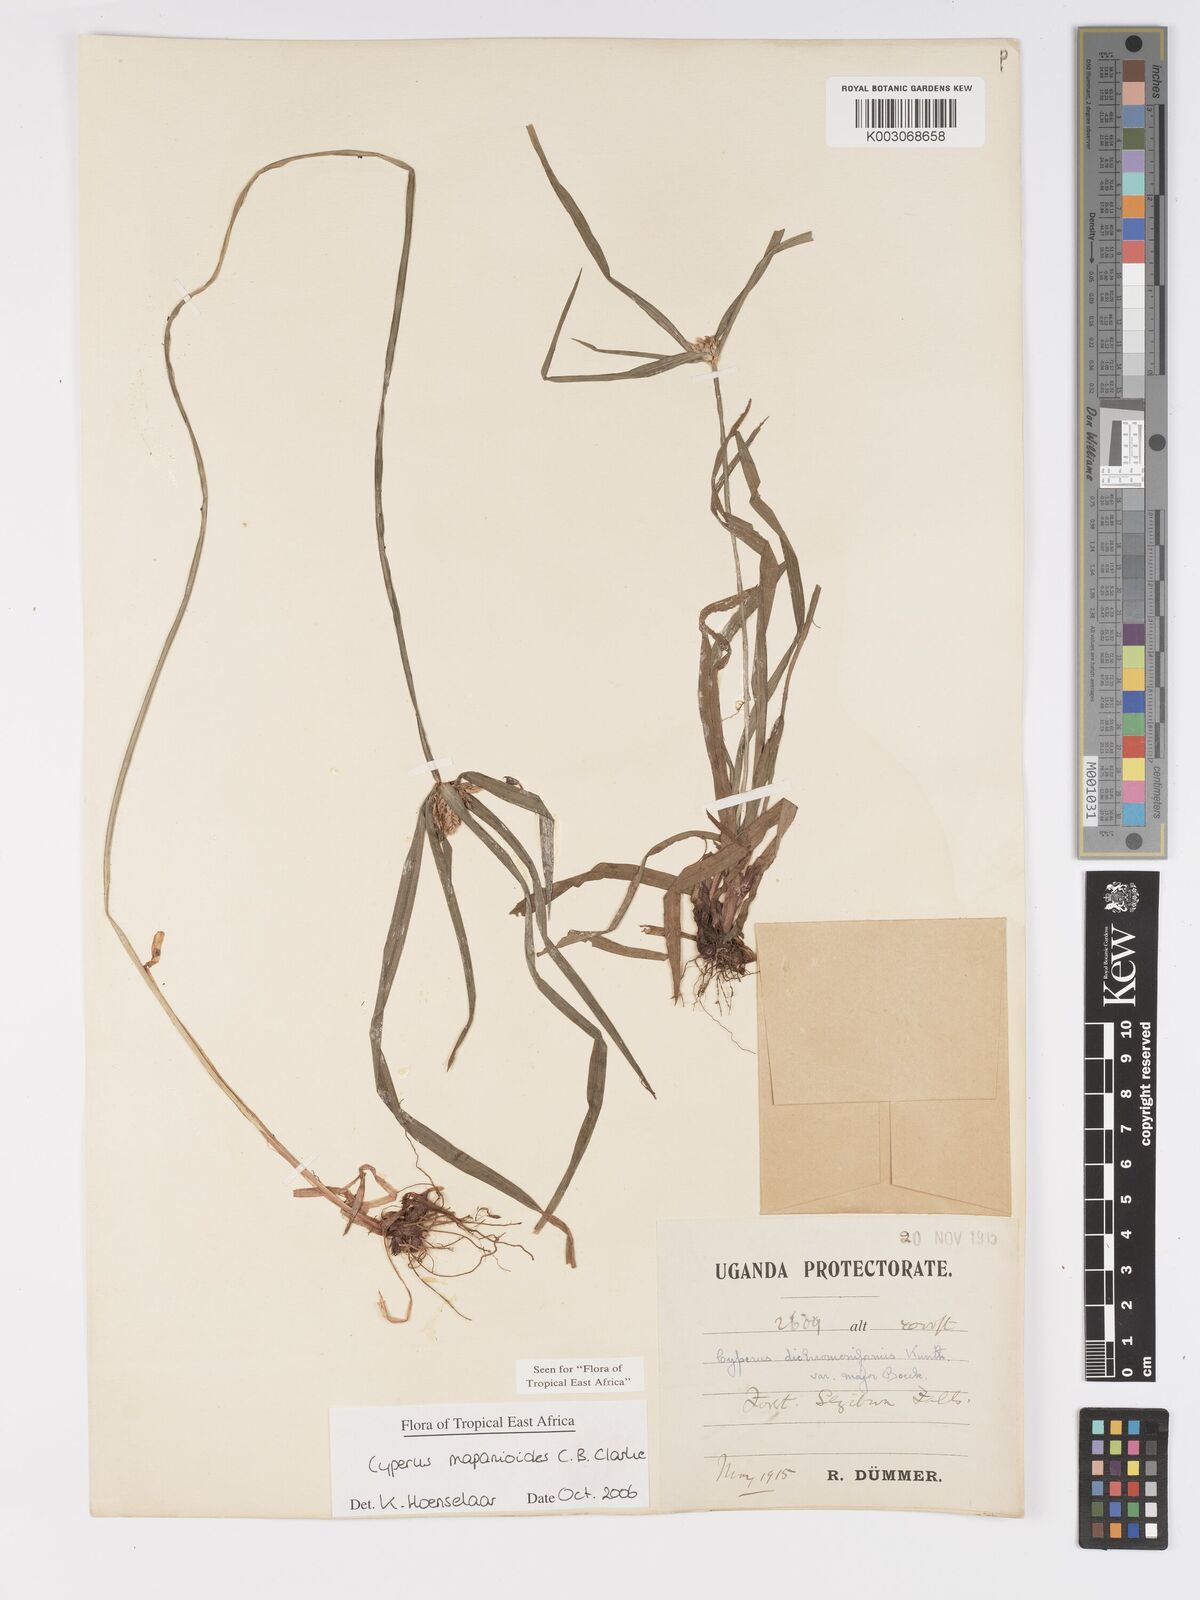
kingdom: Plantae
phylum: Tracheophyta
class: Liliopsida
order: Poales
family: Cyperaceae
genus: Cyperus
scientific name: Cyperus mapanioides
